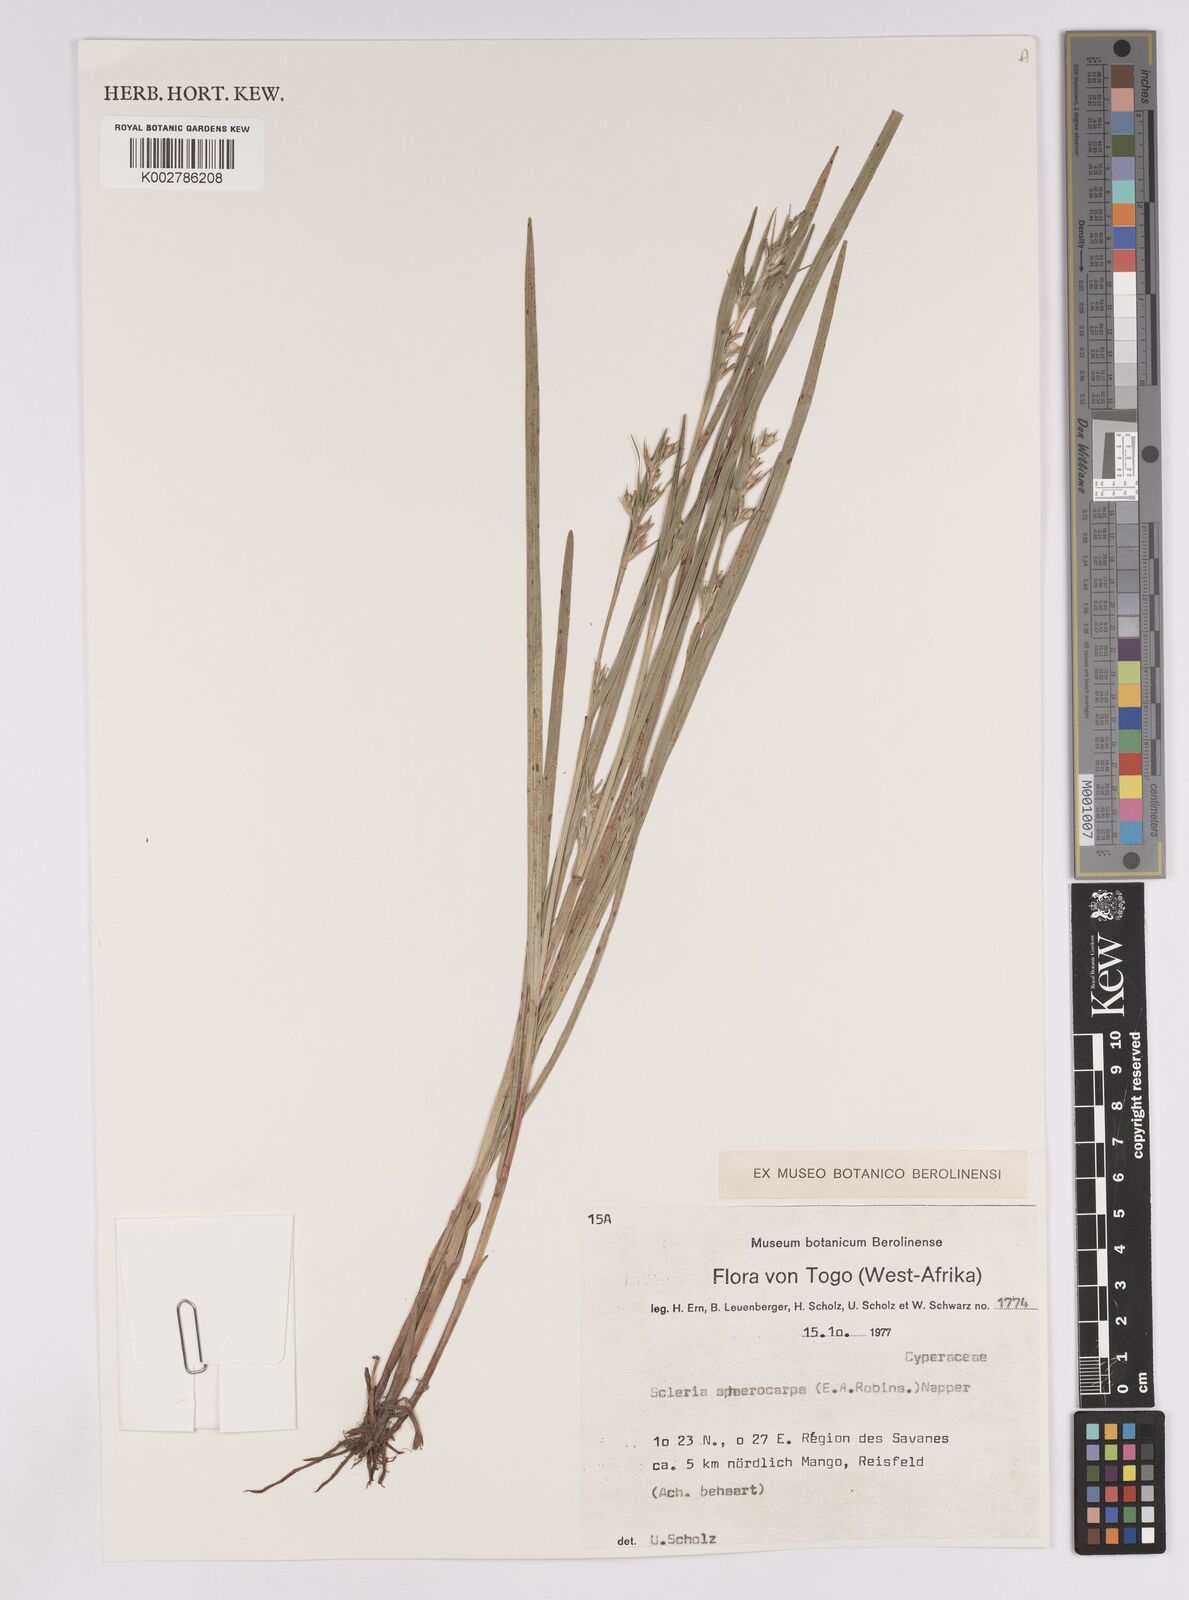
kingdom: Plantae
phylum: Tracheophyta
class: Liliopsida
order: Poales
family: Cyperaceae
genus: Scleria
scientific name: Scleria tessellata
